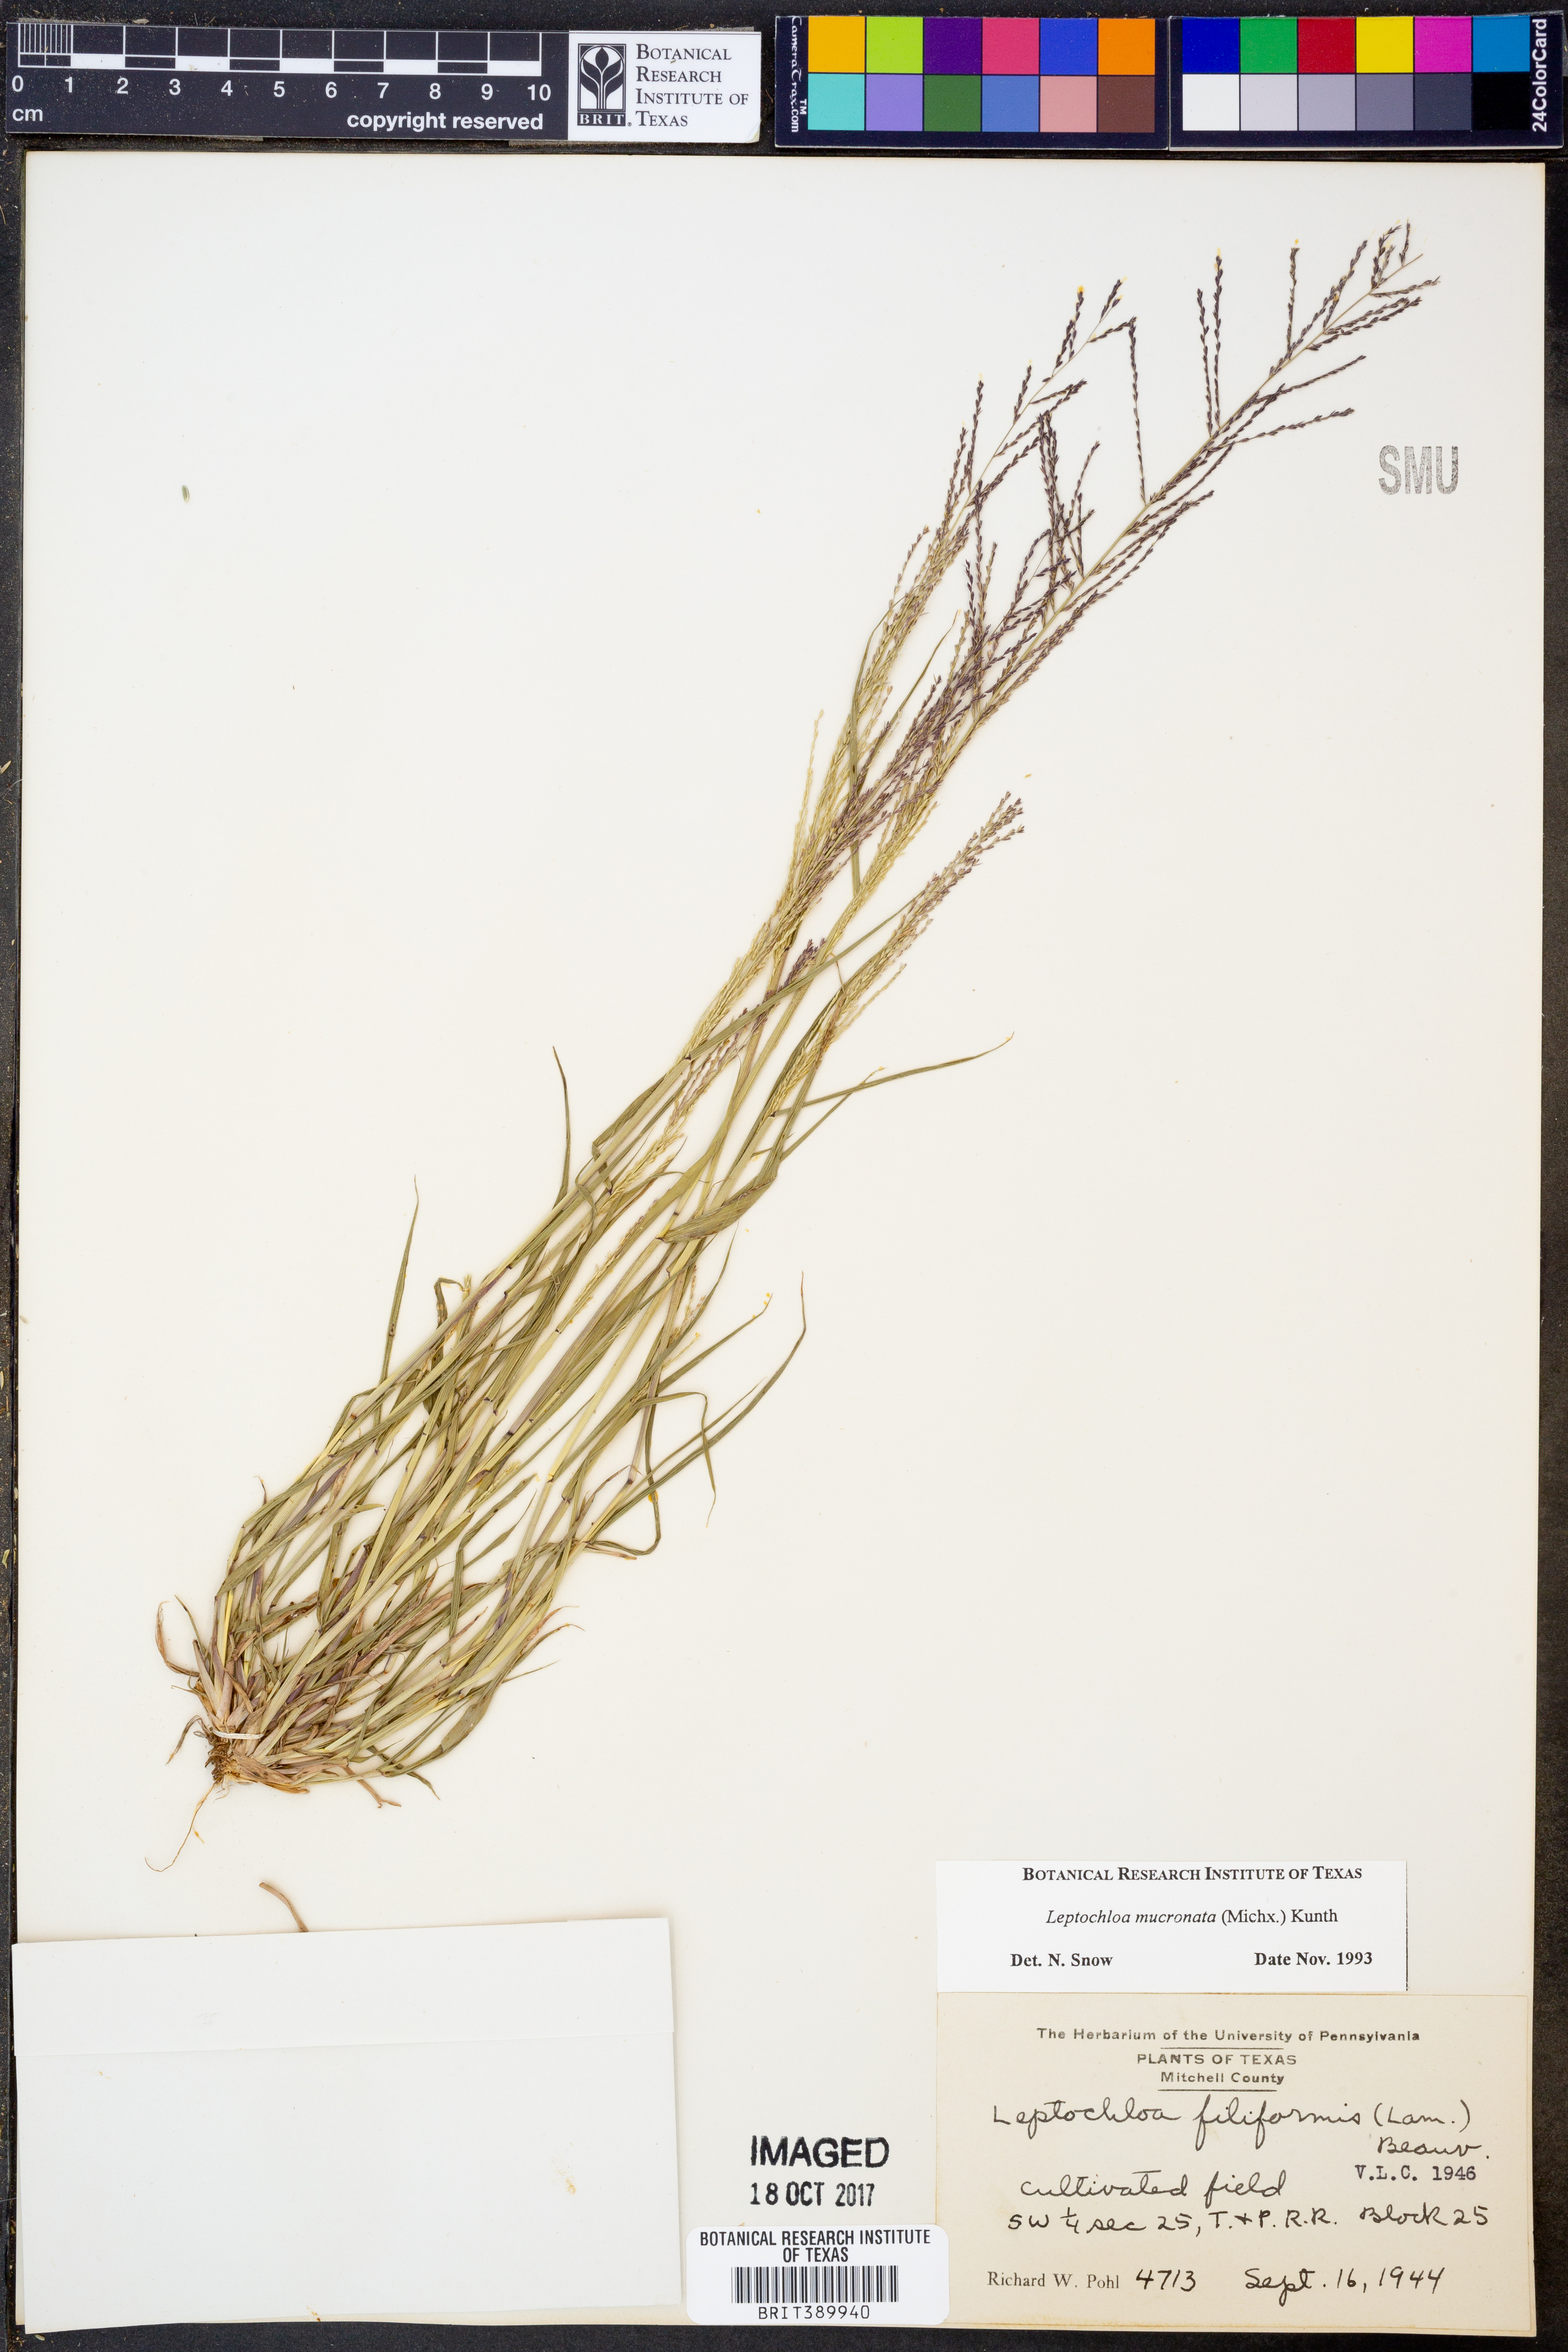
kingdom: Plantae
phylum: Tracheophyta
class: Liliopsida
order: Poales
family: Poaceae
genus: Leptochloa
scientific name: Leptochloa mucronata
